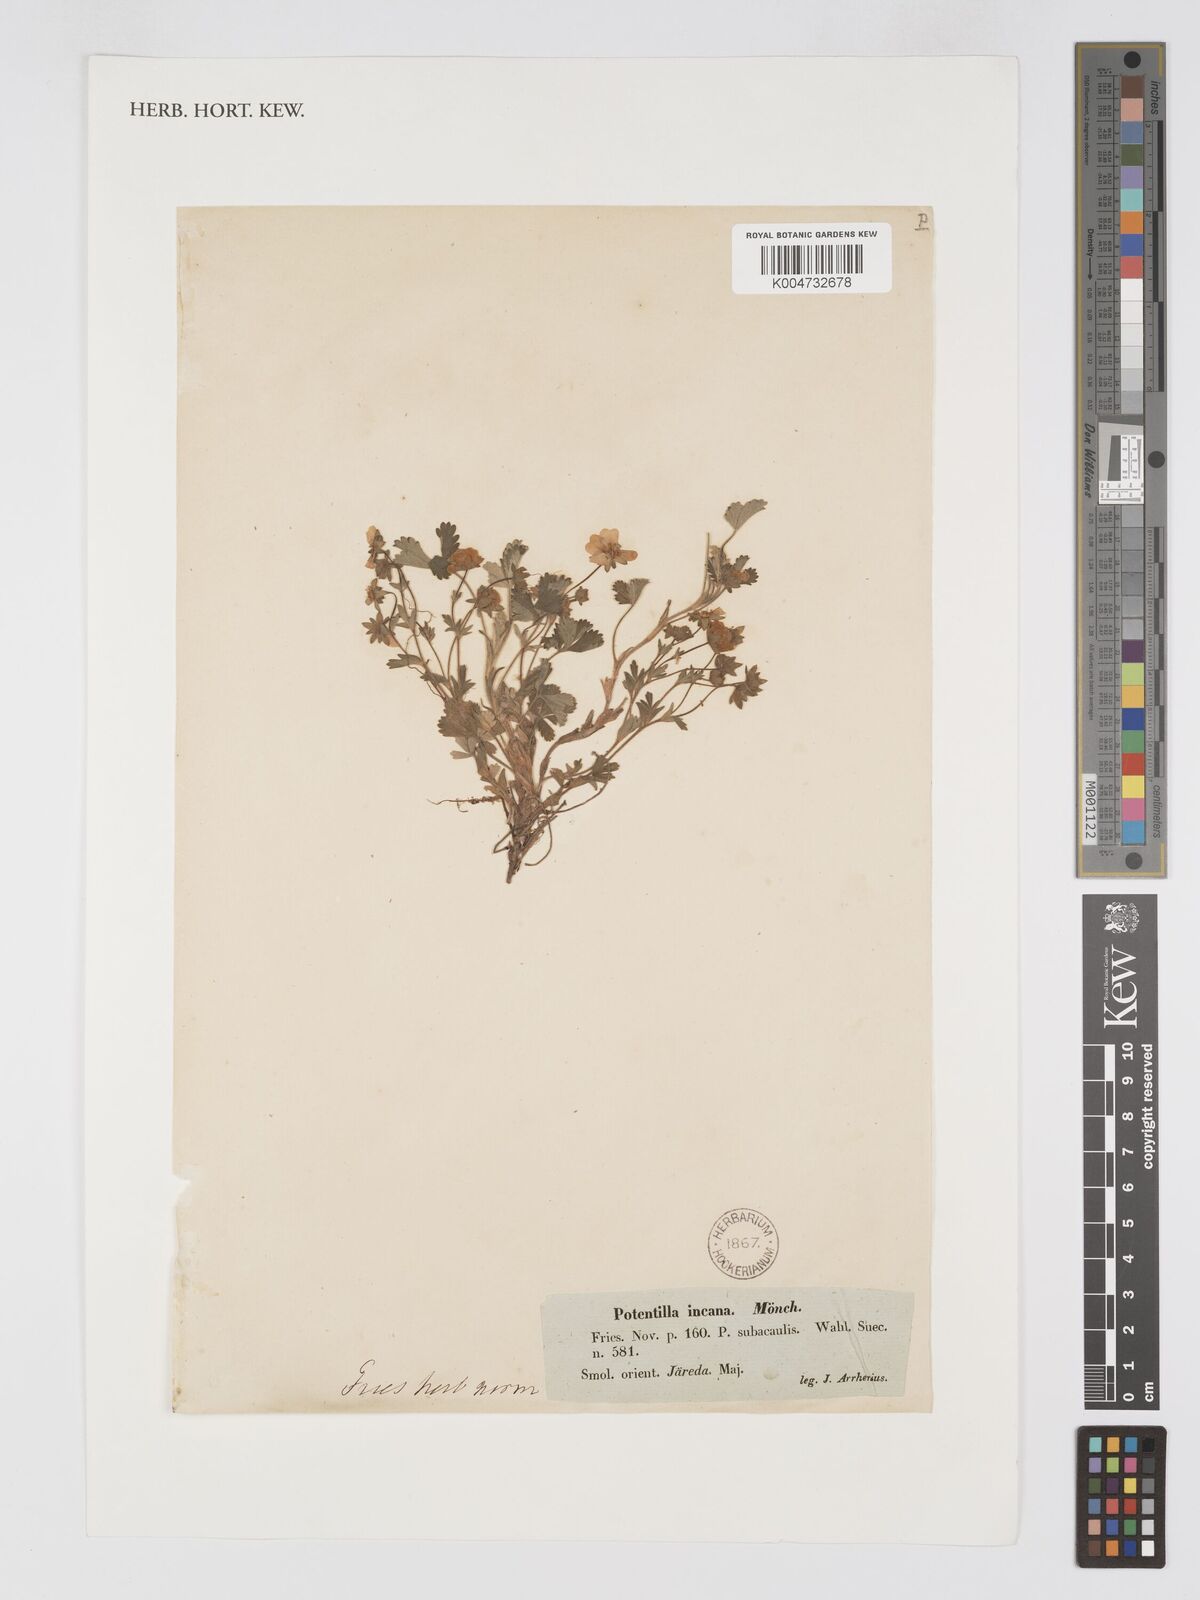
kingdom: Plantae
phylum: Tracheophyta
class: Magnoliopsida
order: Rosales
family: Rosaceae
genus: Potentilla
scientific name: Potentilla cinerea
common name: Ashy cinquefoil
